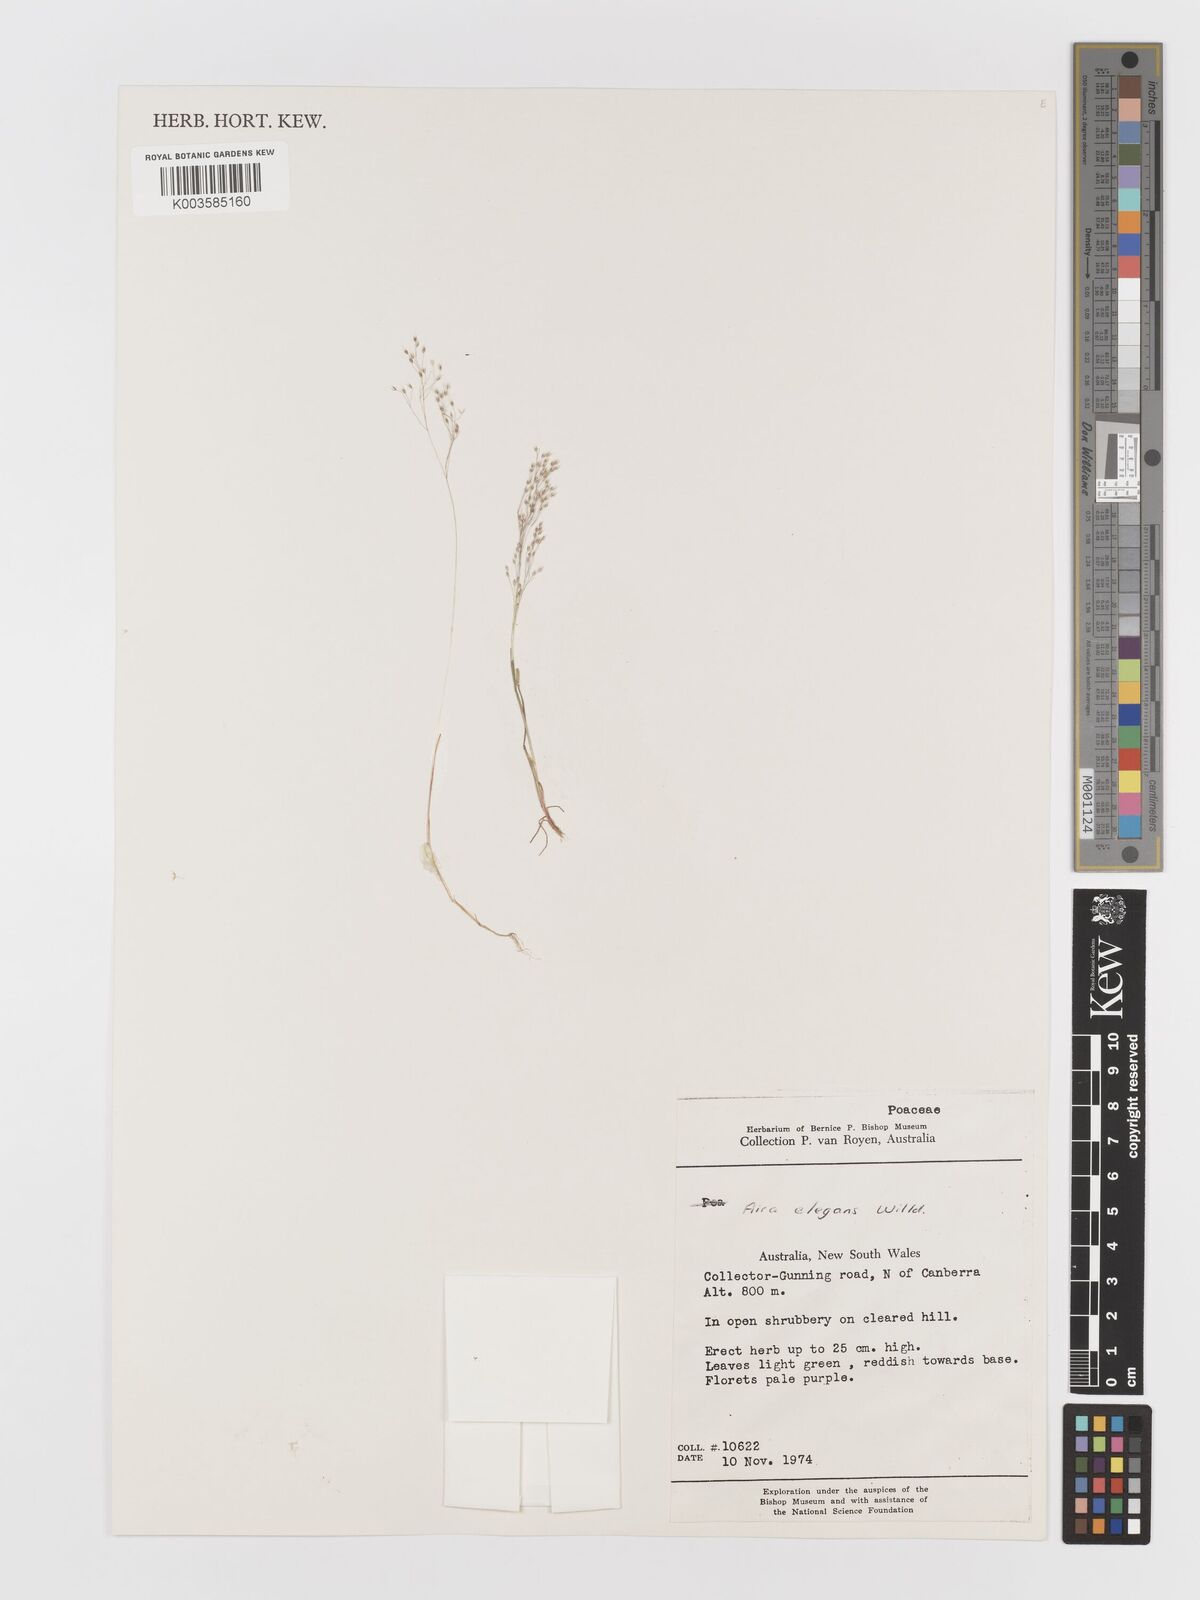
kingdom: Plantae
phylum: Tracheophyta
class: Liliopsida
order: Poales
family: Poaceae
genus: Aira
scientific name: Aira elegans
